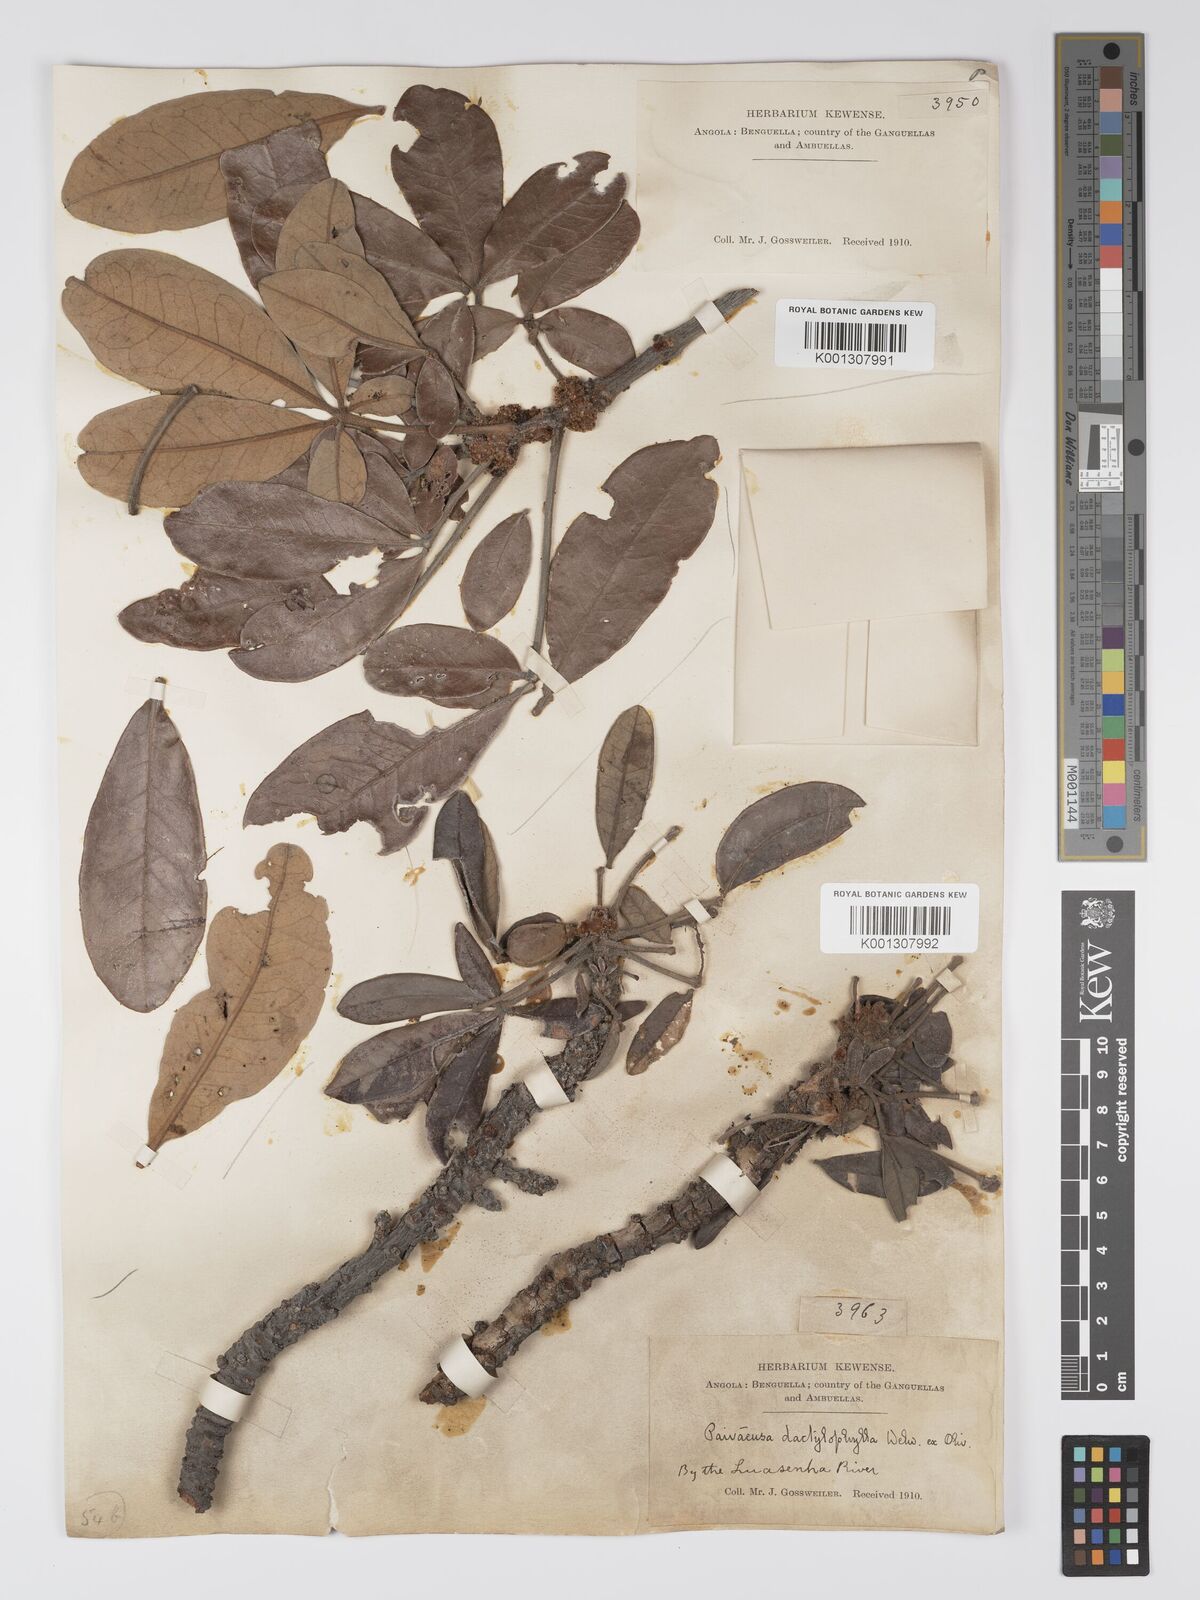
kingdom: Plantae
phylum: Tracheophyta
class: Magnoliopsida
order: Malpighiales
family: Picrodendraceae
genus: Oldfieldia
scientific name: Oldfieldia dactylophylla
